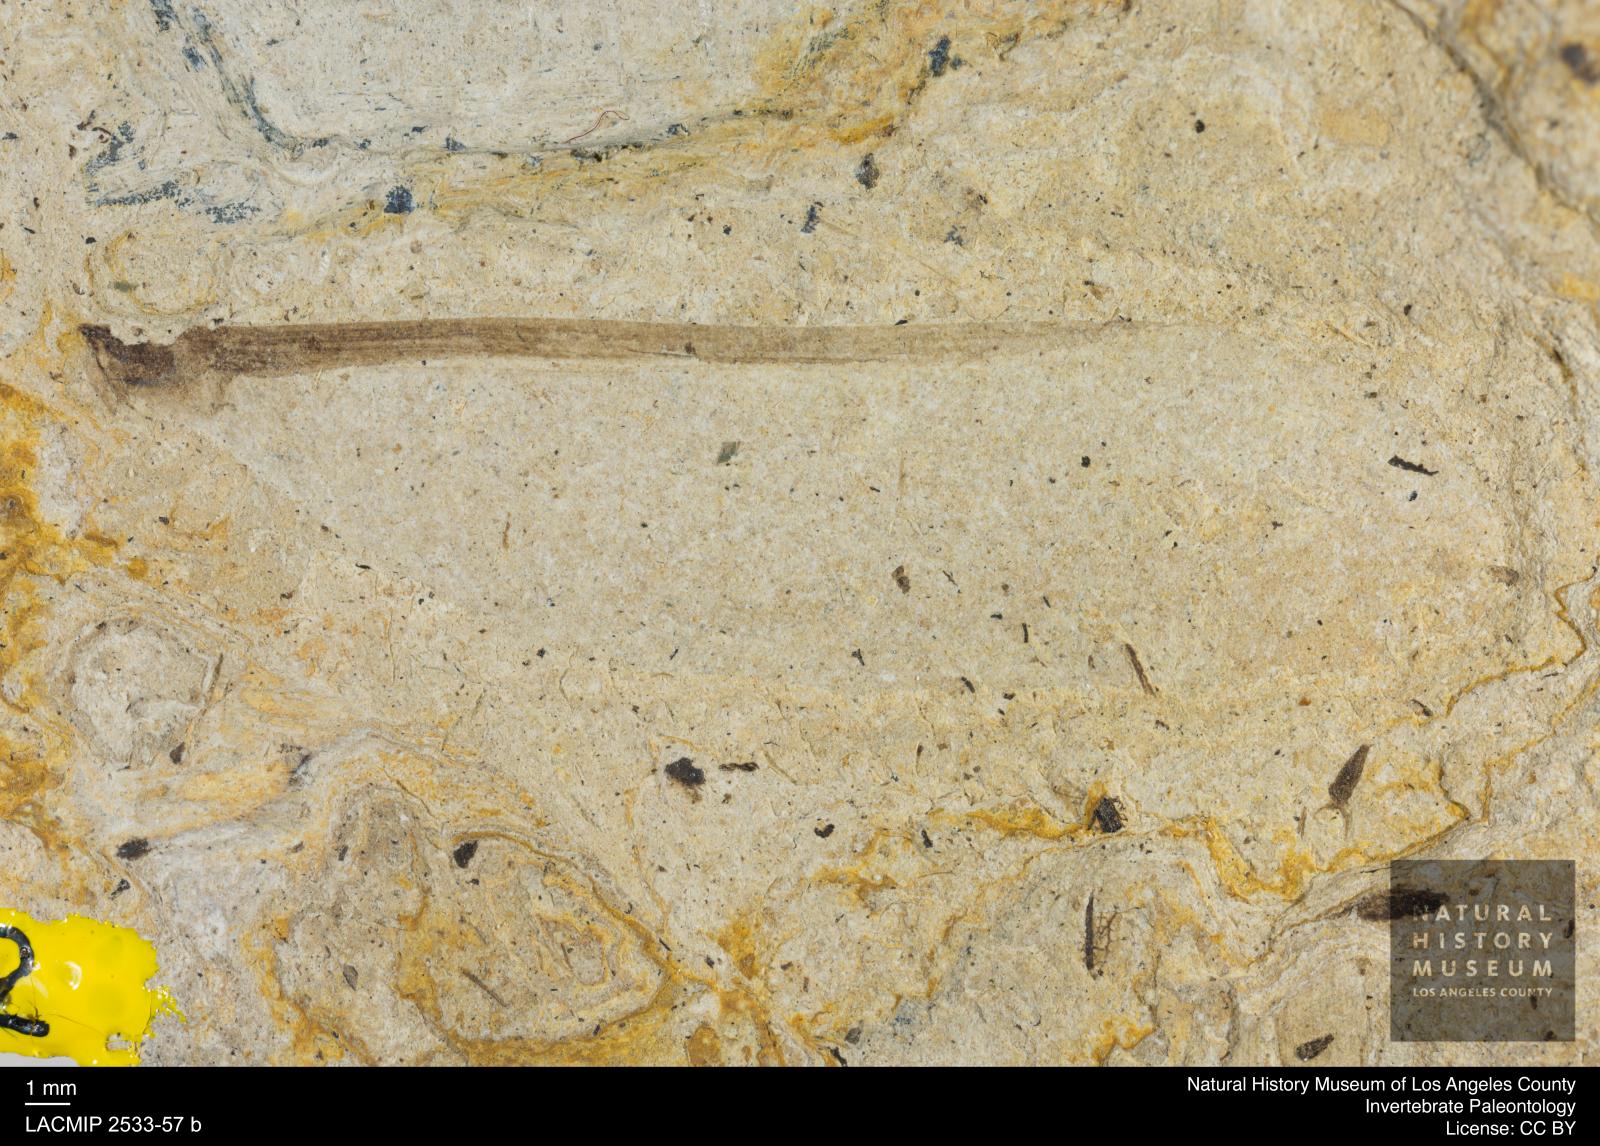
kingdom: Animalia
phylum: Arthropoda
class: Insecta
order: Blattodea
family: Kalotermitidae
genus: Eotermes
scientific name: Eotermes grandaeva
